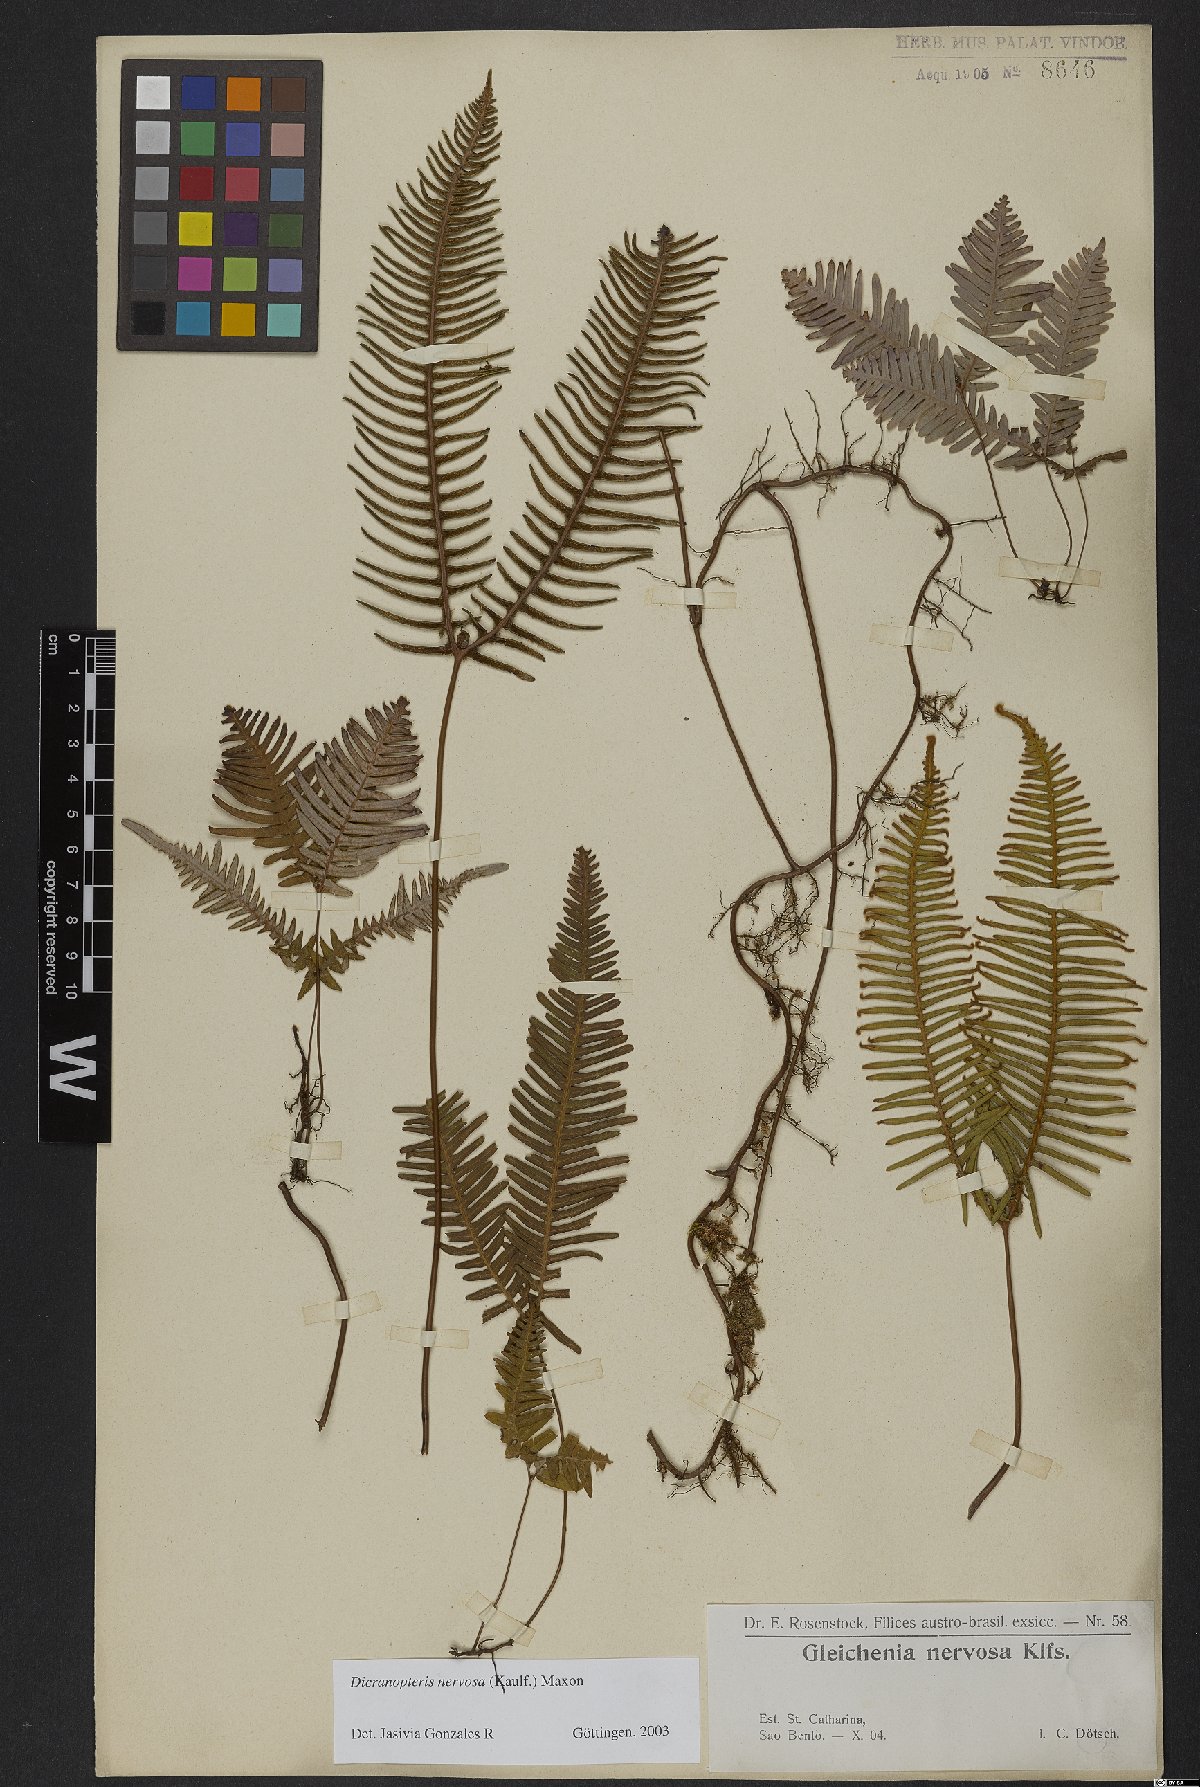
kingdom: Plantae
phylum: Tracheophyta
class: Polypodiopsida
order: Gleicheniales
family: Gleicheniaceae
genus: Dicranopteris
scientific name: Dicranopteris nervosa
